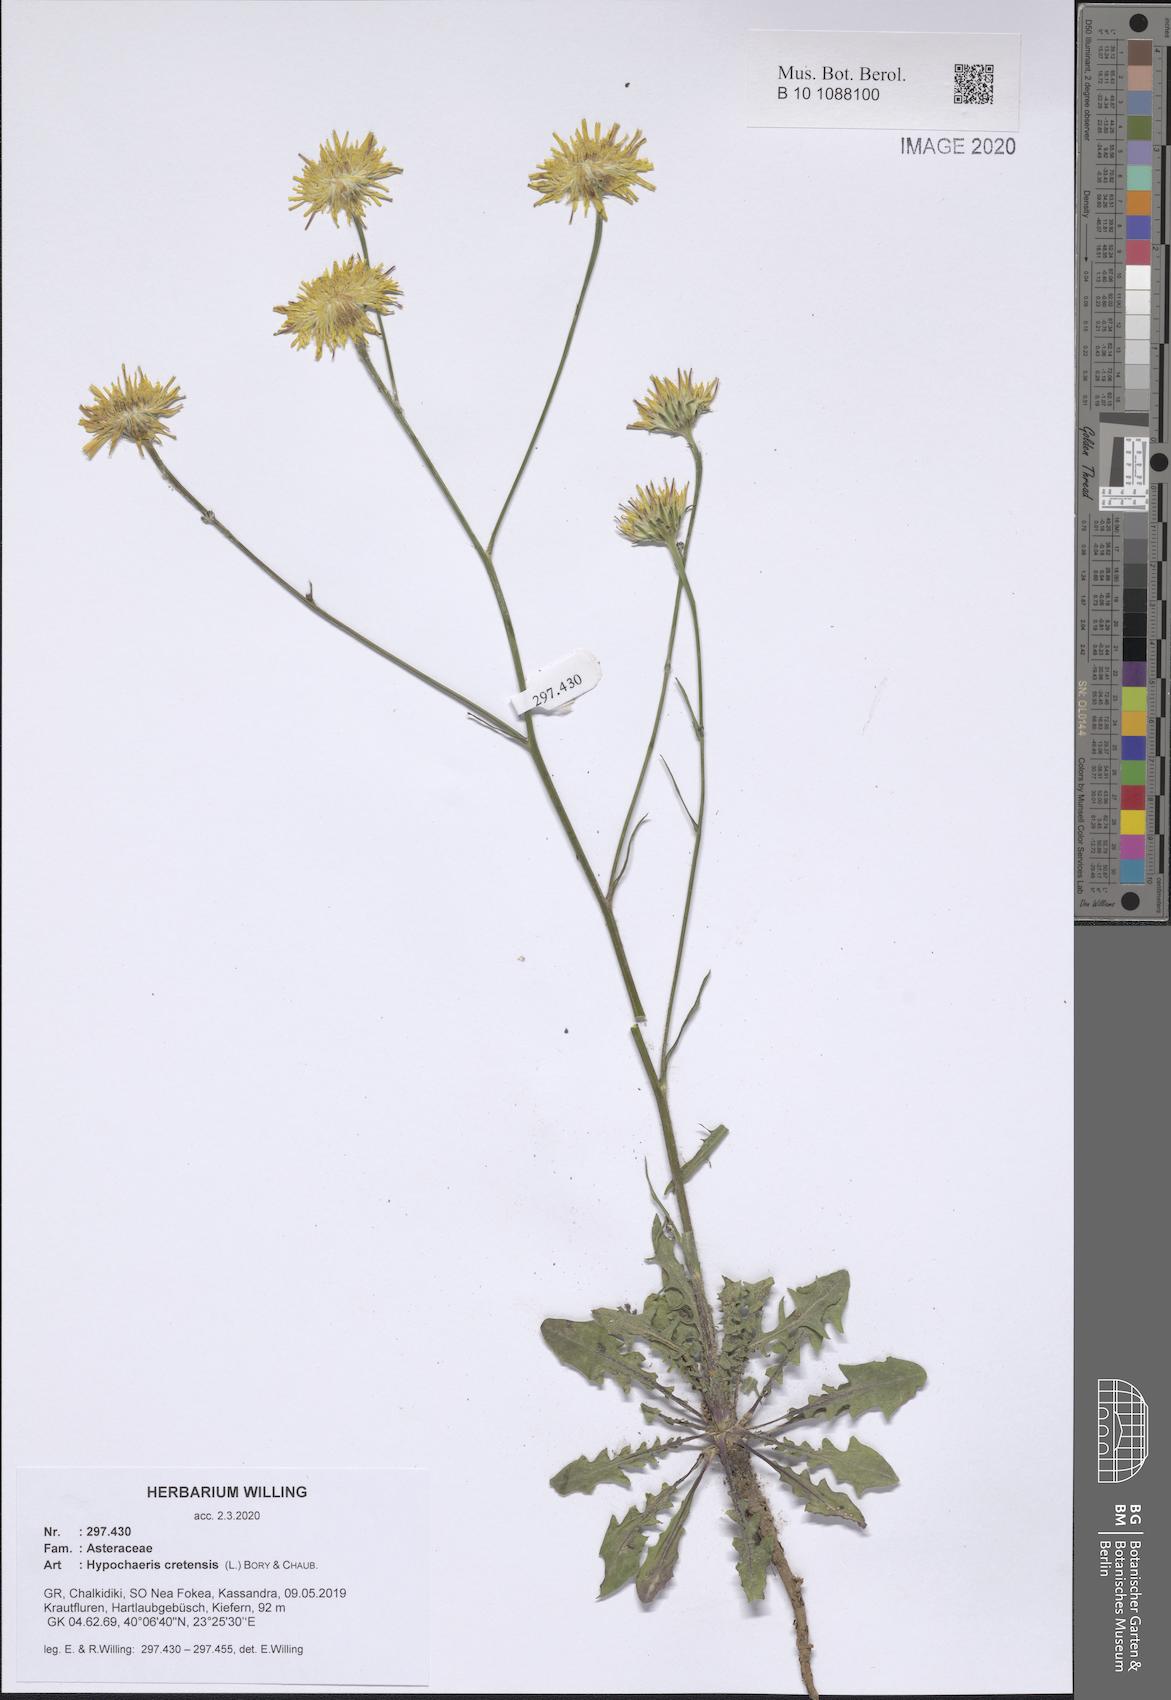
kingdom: Plantae
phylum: Tracheophyta
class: Magnoliopsida
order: Asterales
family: Asteraceae
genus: Hypochaeris
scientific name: Hypochaeris cretensis
